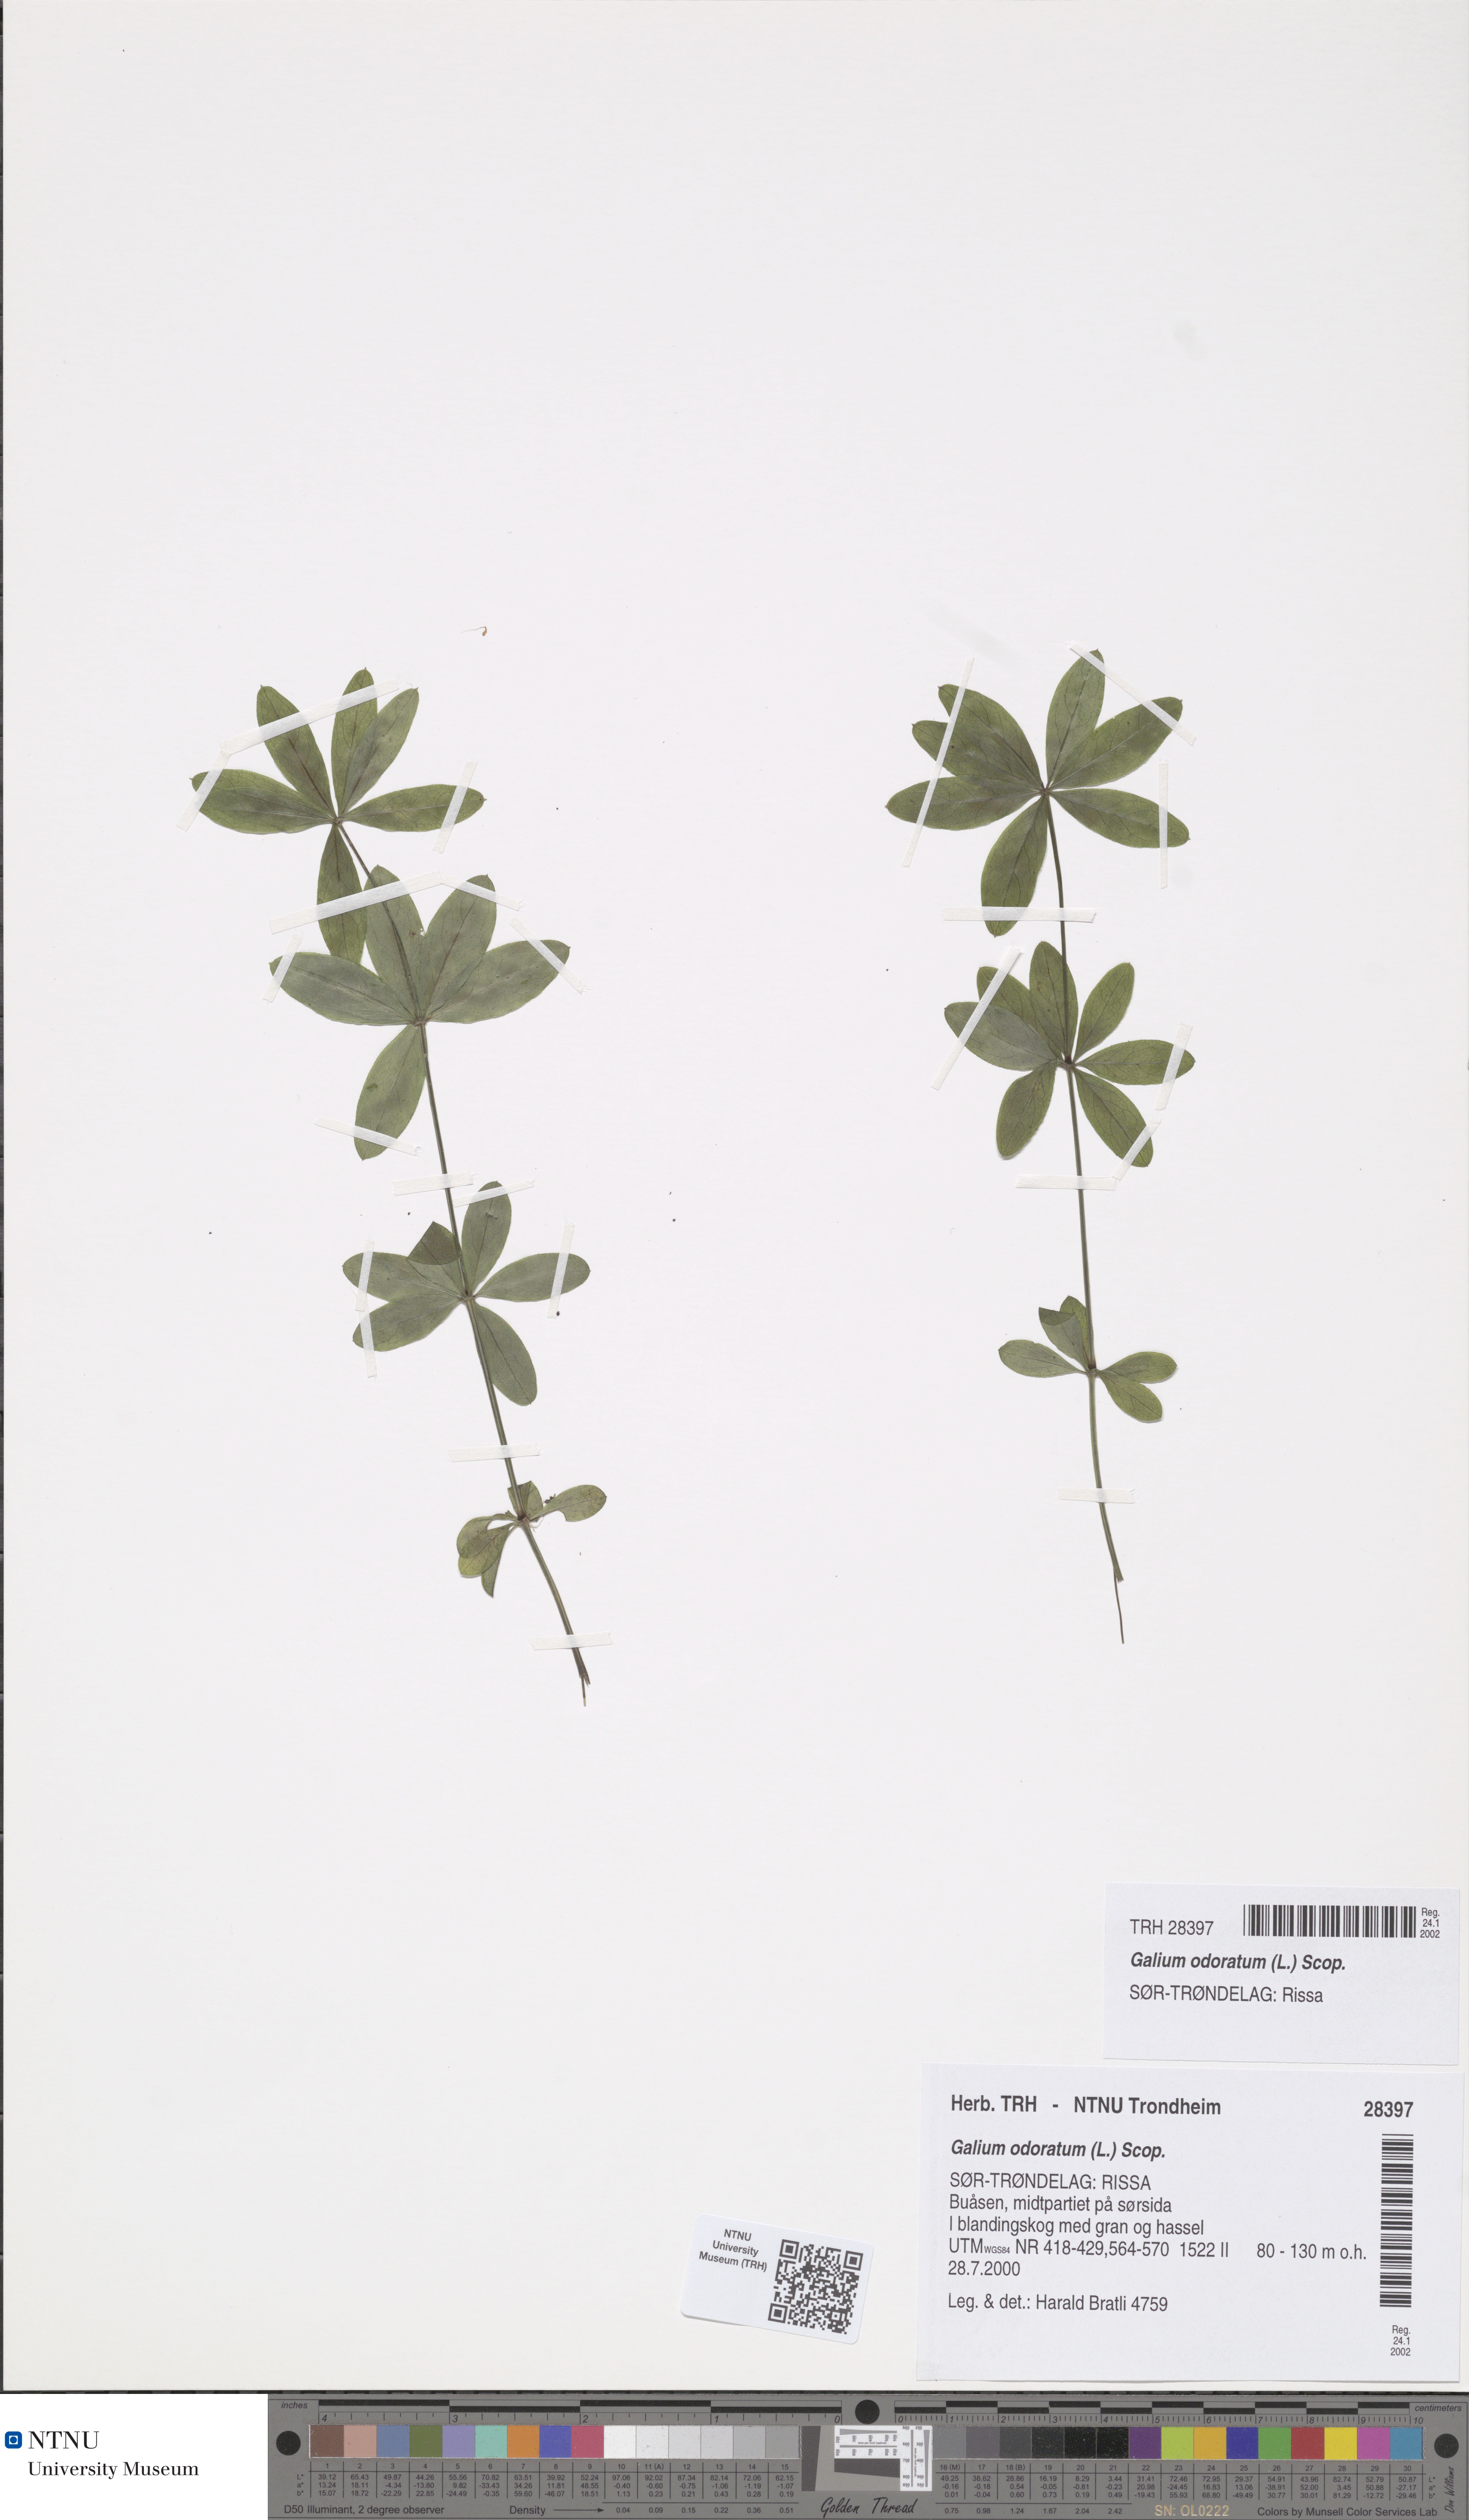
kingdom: Plantae
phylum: Tracheophyta
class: Magnoliopsida
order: Gentianales
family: Rubiaceae
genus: Galium
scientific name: Galium odoratum
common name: Sweet woodruff
